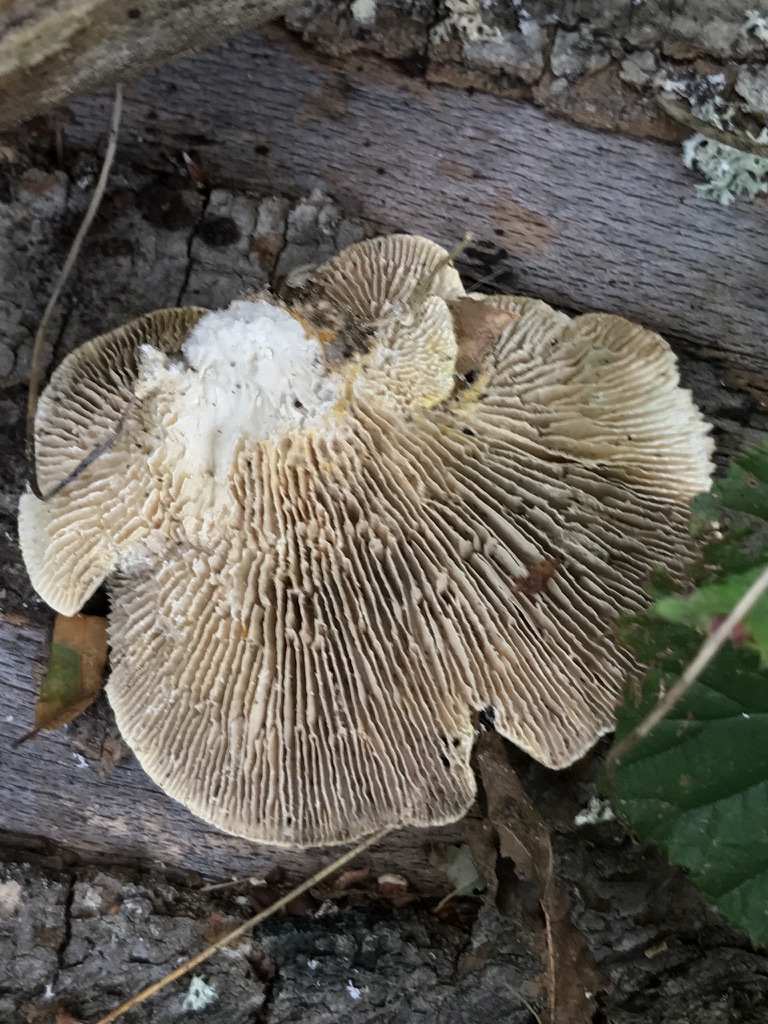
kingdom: Fungi
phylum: Basidiomycota
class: Agaricomycetes
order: Polyporales
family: Polyporaceae
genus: Lenzites
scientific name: Lenzites betulinus
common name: birke-læderporesvamp
